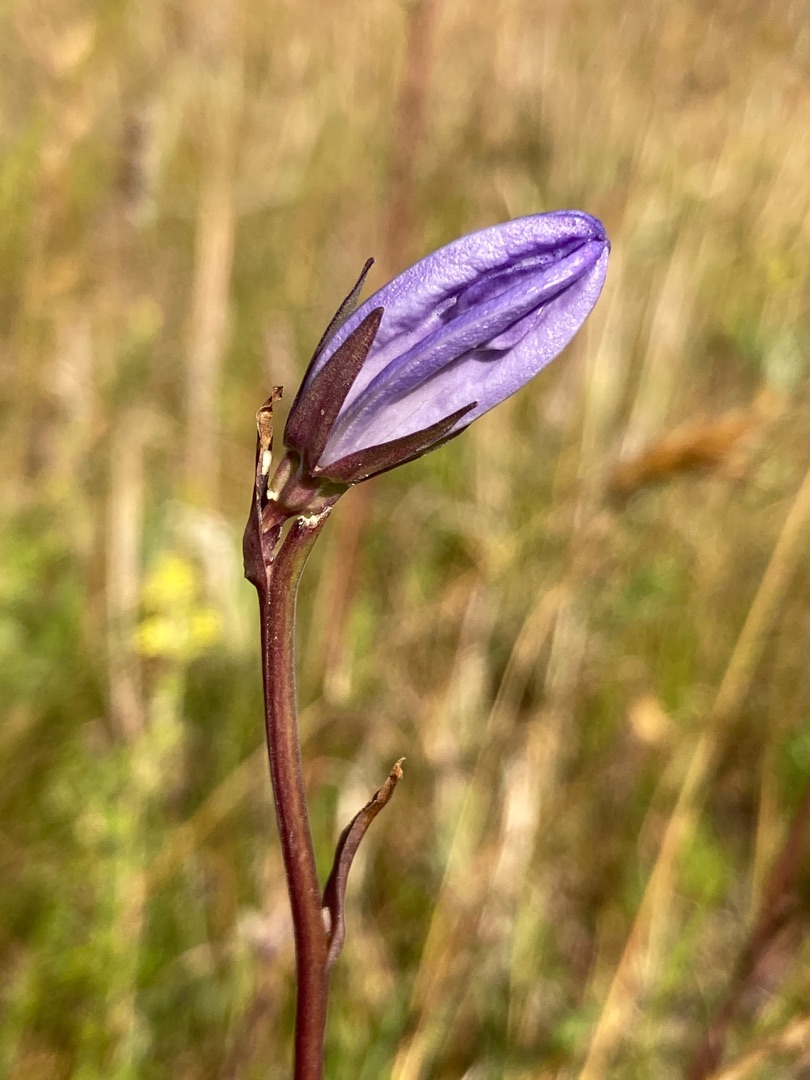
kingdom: Plantae
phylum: Tracheophyta
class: Magnoliopsida
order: Asterales
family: Campanulaceae
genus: Campanula
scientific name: Campanula persicifolia
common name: Smalbladet klokke
